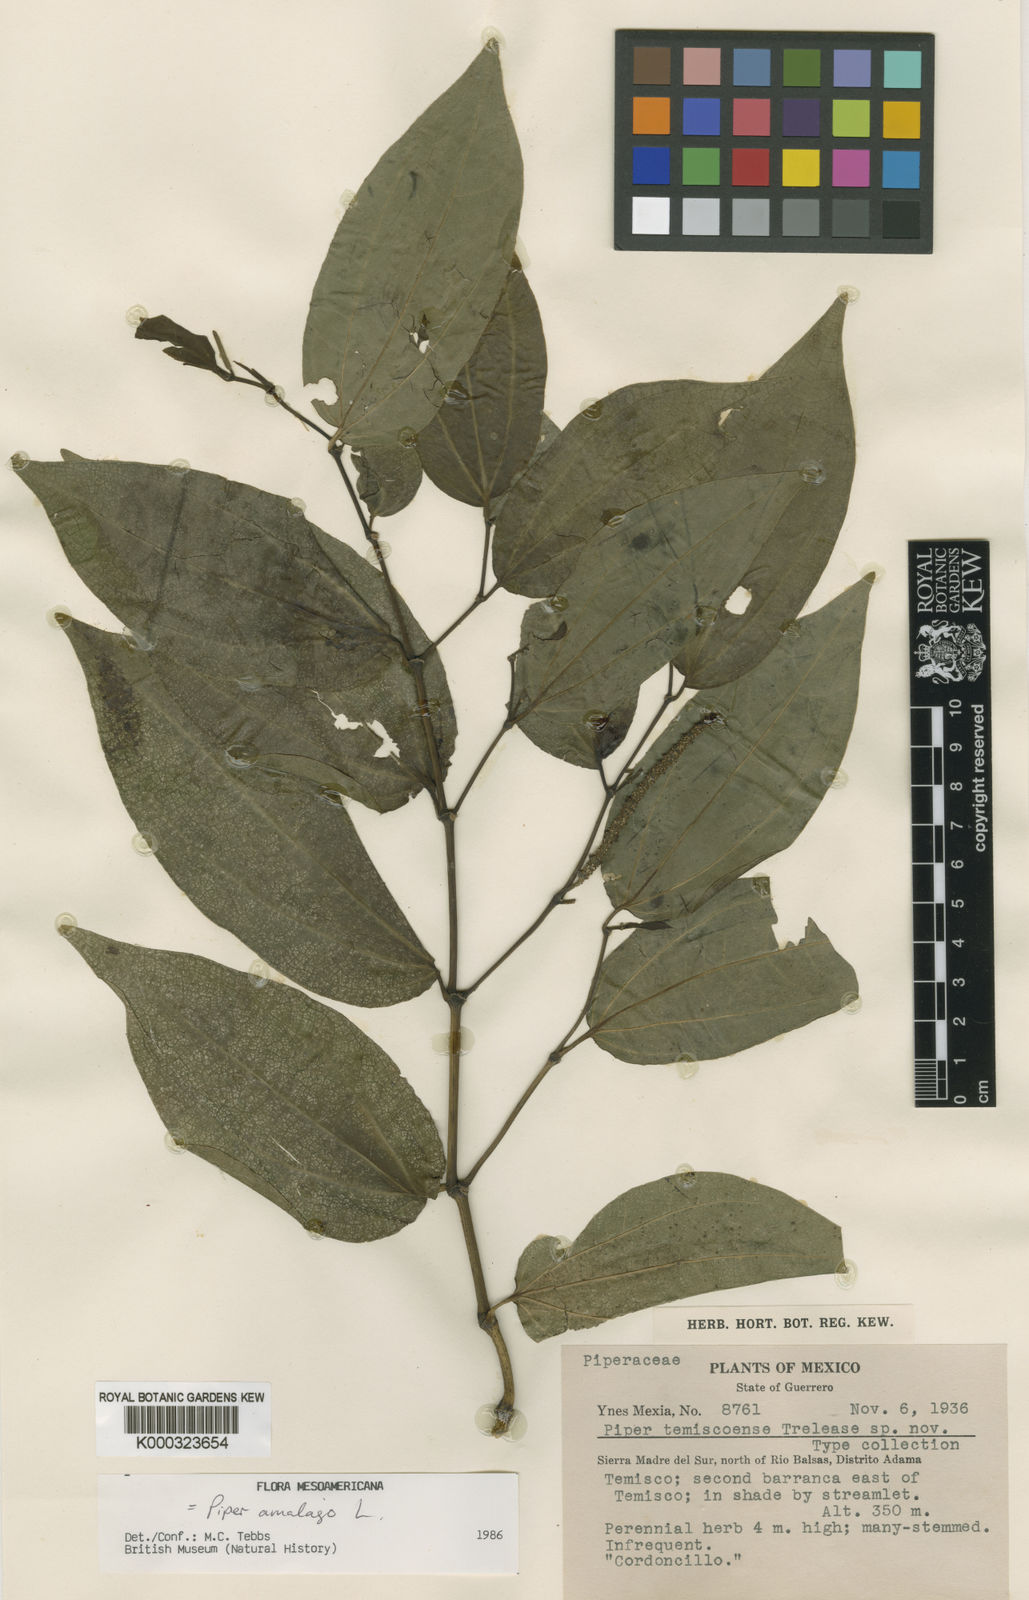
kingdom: Plantae
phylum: Tracheophyta
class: Magnoliopsida
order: Piperales
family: Piperaceae
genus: Piper
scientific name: Piper amalago
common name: Pepper-elder
